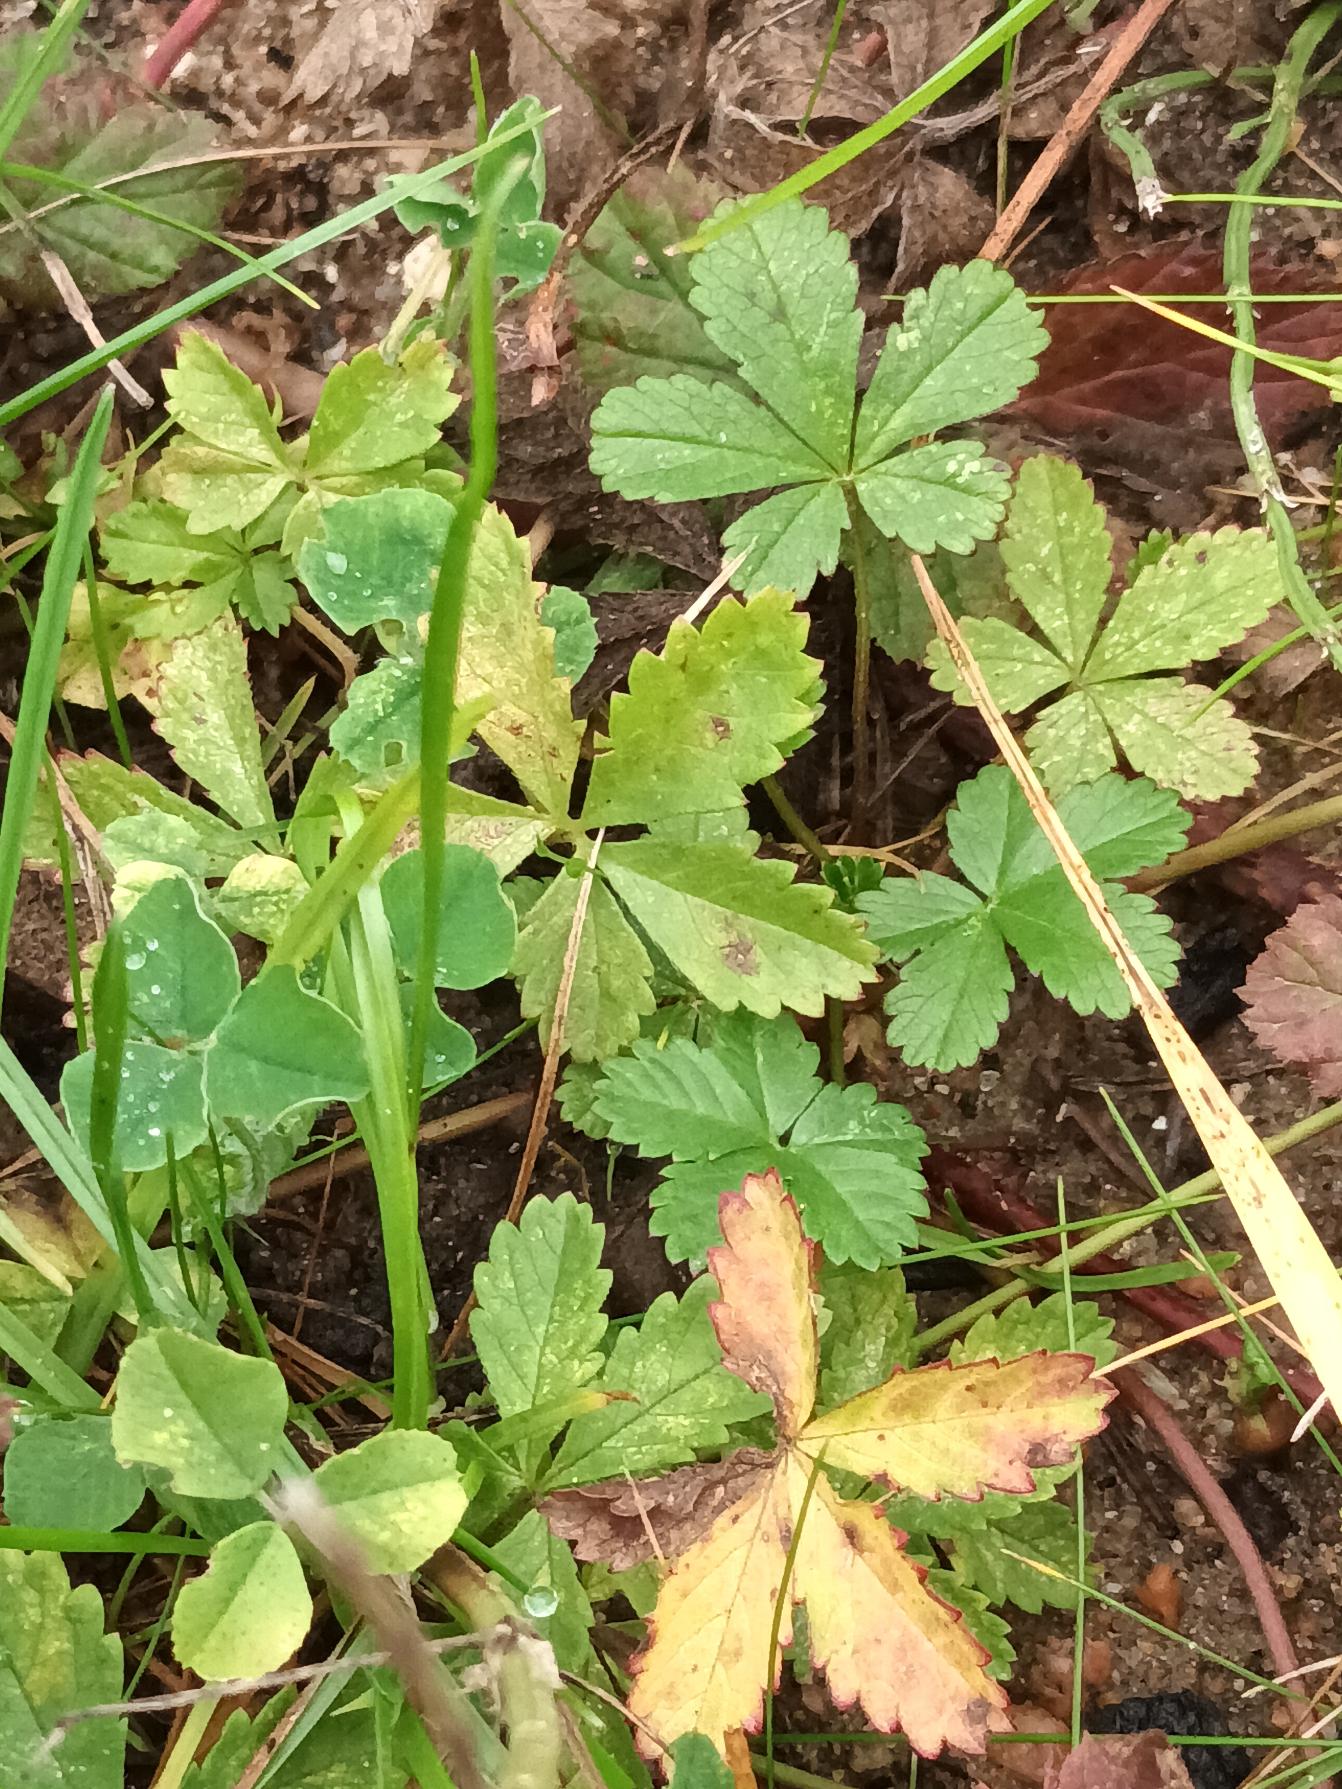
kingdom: Plantae
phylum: Tracheophyta
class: Magnoliopsida
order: Rosales
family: Rosaceae
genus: Potentilla
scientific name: Potentilla reptans
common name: Krybende potentil
